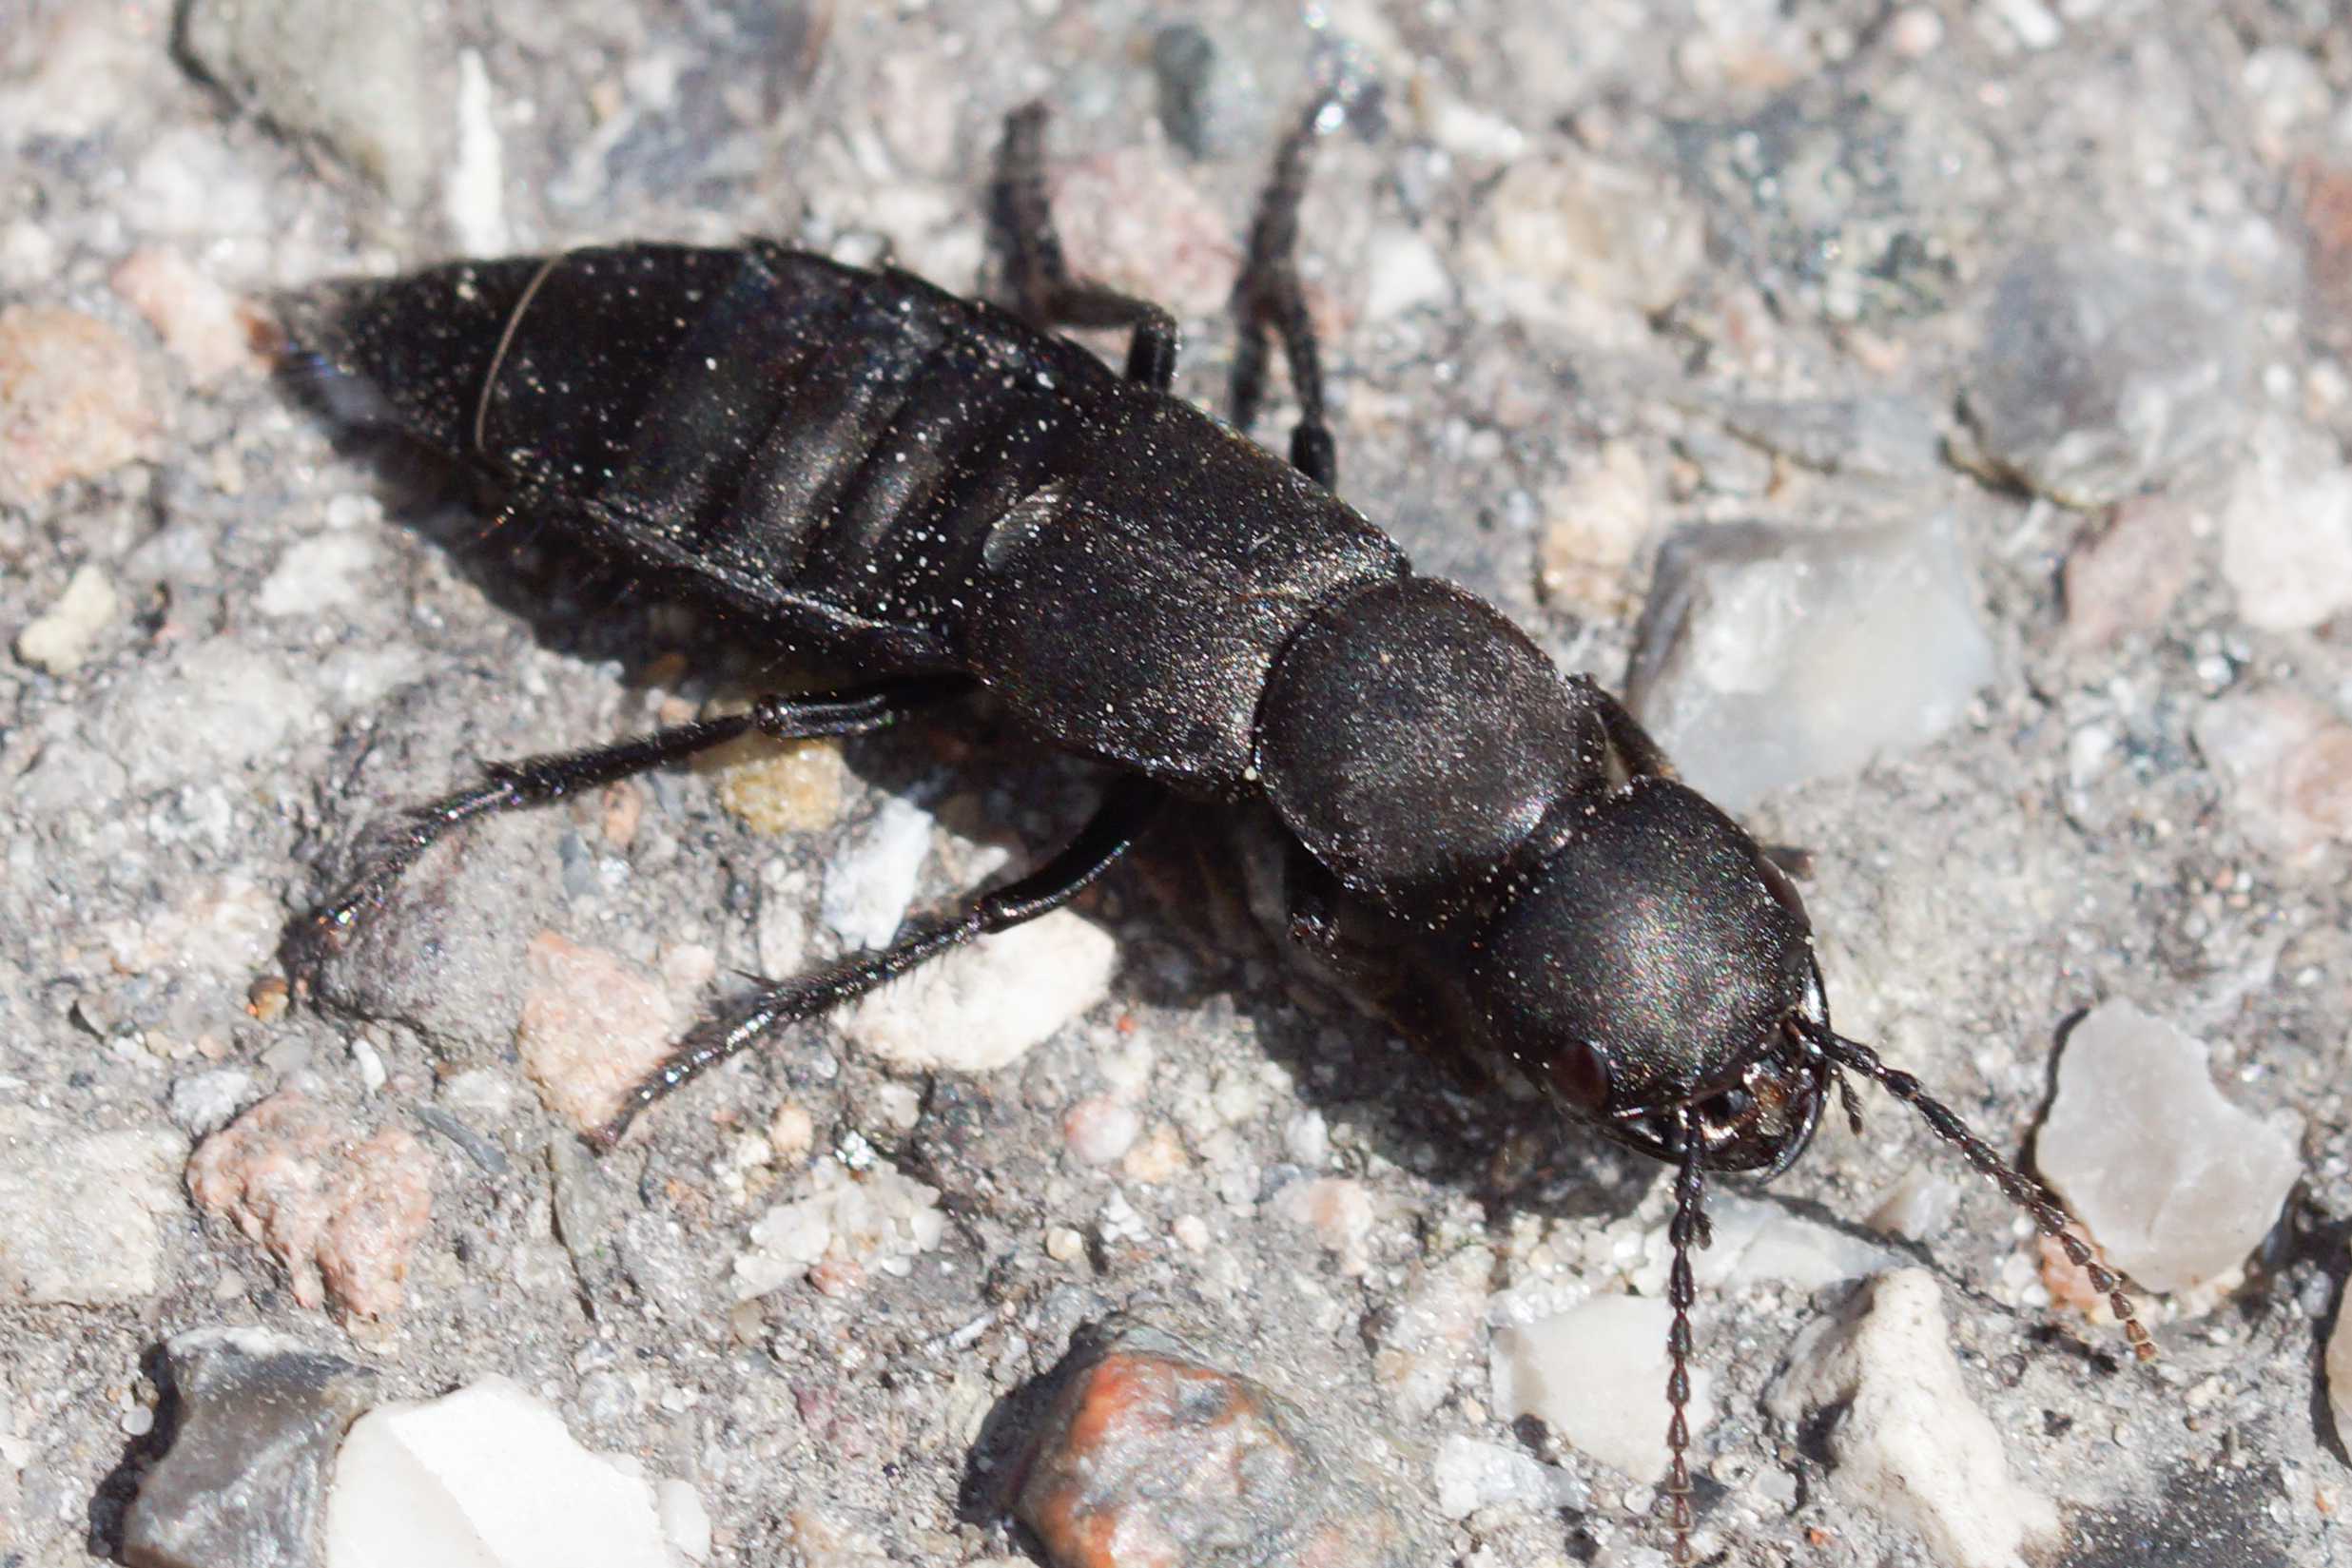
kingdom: Animalia
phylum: Arthropoda
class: Insecta
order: Coleoptera
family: Staphylinidae
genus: Ocypus
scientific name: Ocypus olens
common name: Stor rovbille
